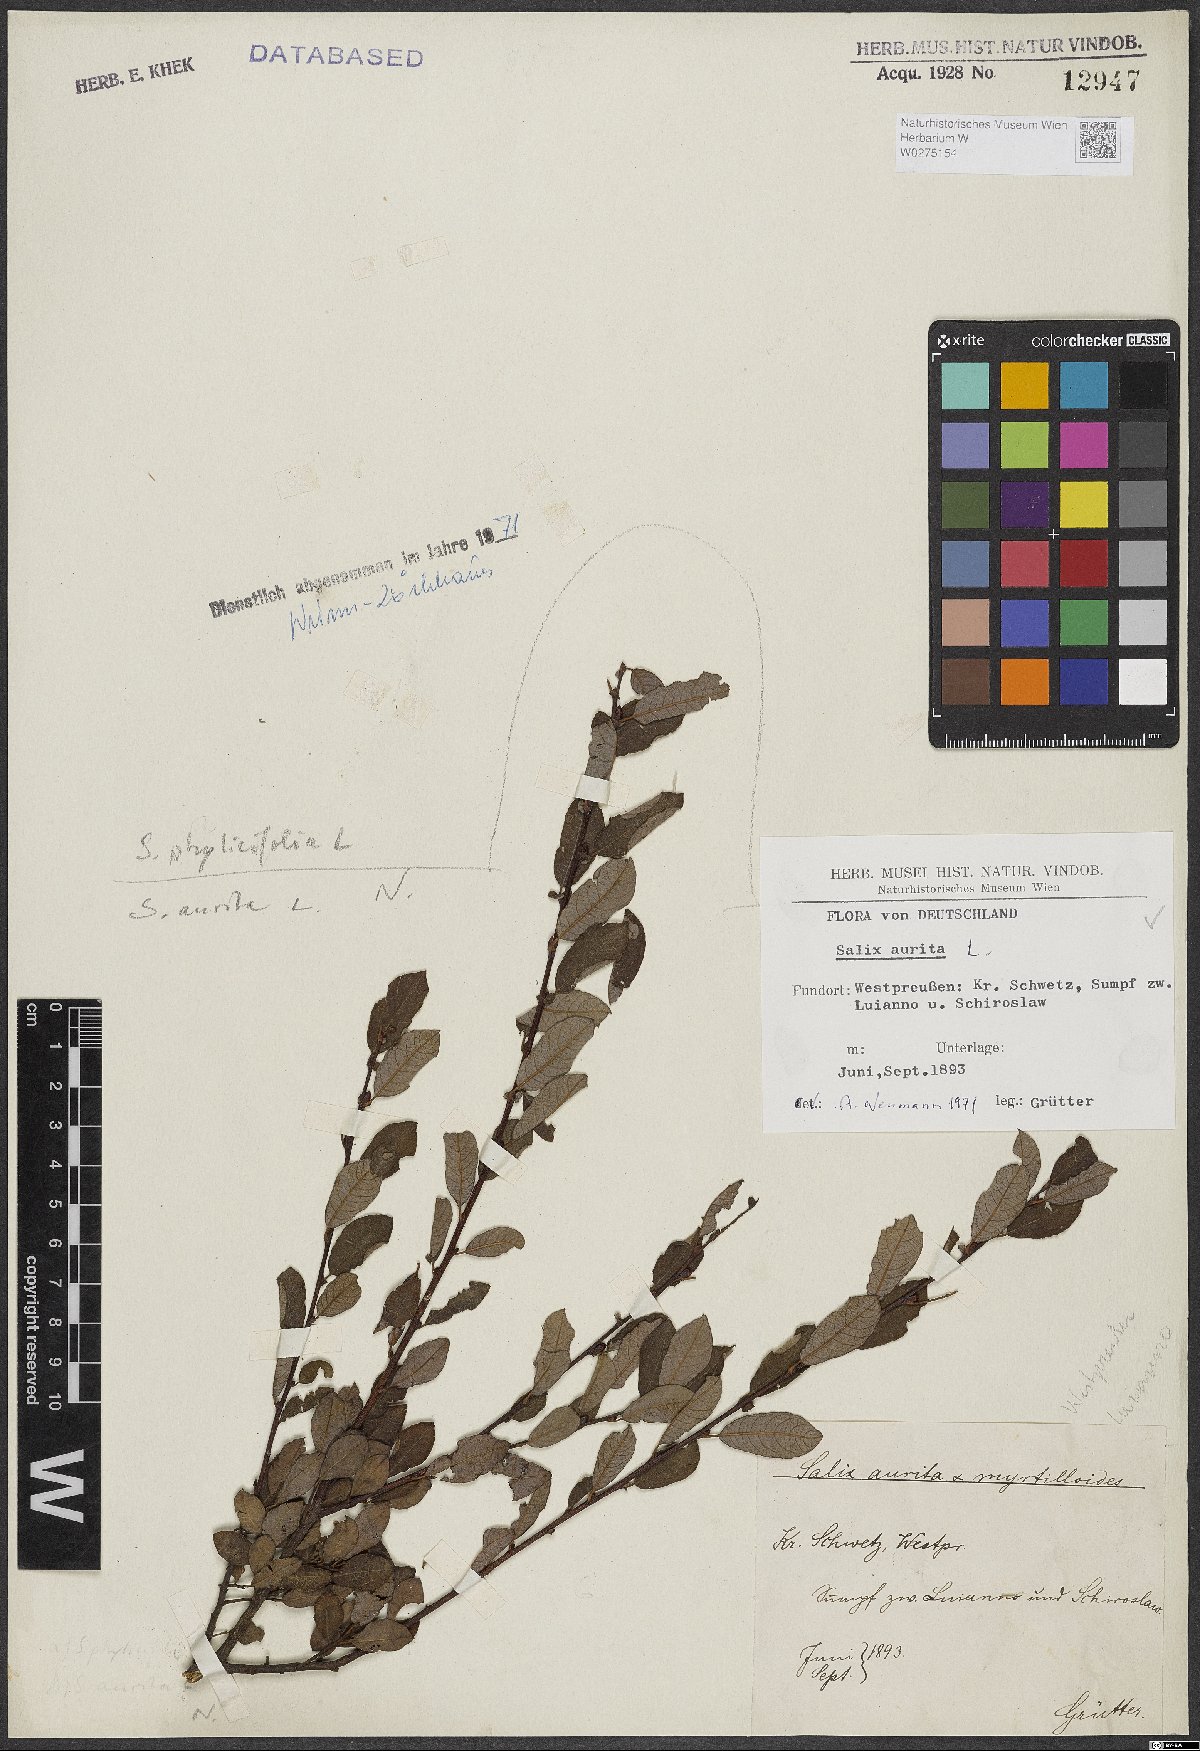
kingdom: Plantae
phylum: Tracheophyta
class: Magnoliopsida
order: Malpighiales
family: Salicaceae
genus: Salix
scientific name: Salix aurita
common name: Eared willow
